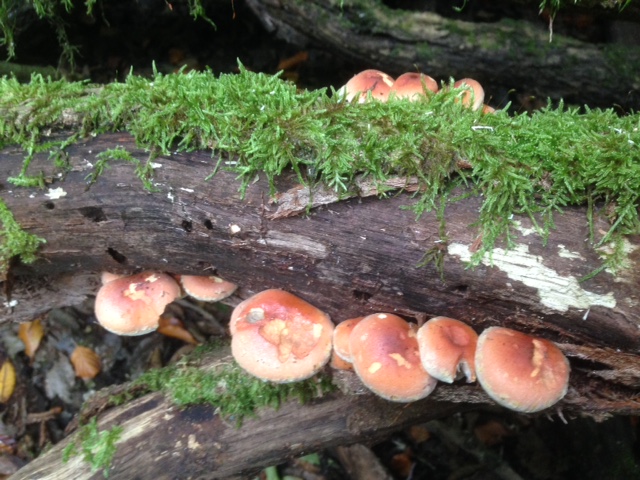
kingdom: Fungi
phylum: Basidiomycota
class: Agaricomycetes
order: Agaricales
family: Strophariaceae
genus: Hypholoma
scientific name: Hypholoma lateritium
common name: teglrød svovlhat
